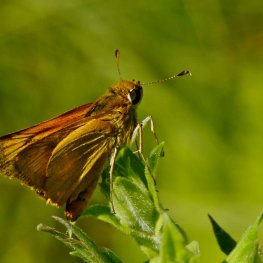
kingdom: Animalia
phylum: Arthropoda
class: Insecta
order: Lepidoptera
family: Hesperiidae
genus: Atrytone
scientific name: Atrytone delaware
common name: Delaware Skipper
